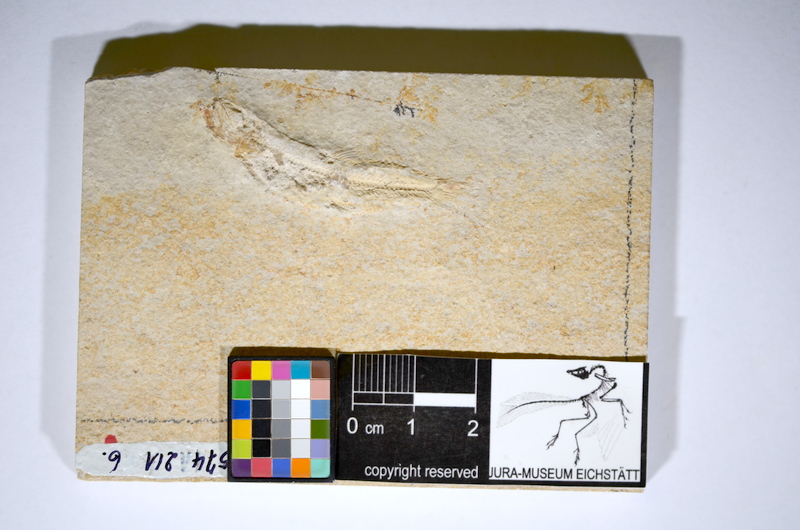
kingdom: Animalia
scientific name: Animalia
